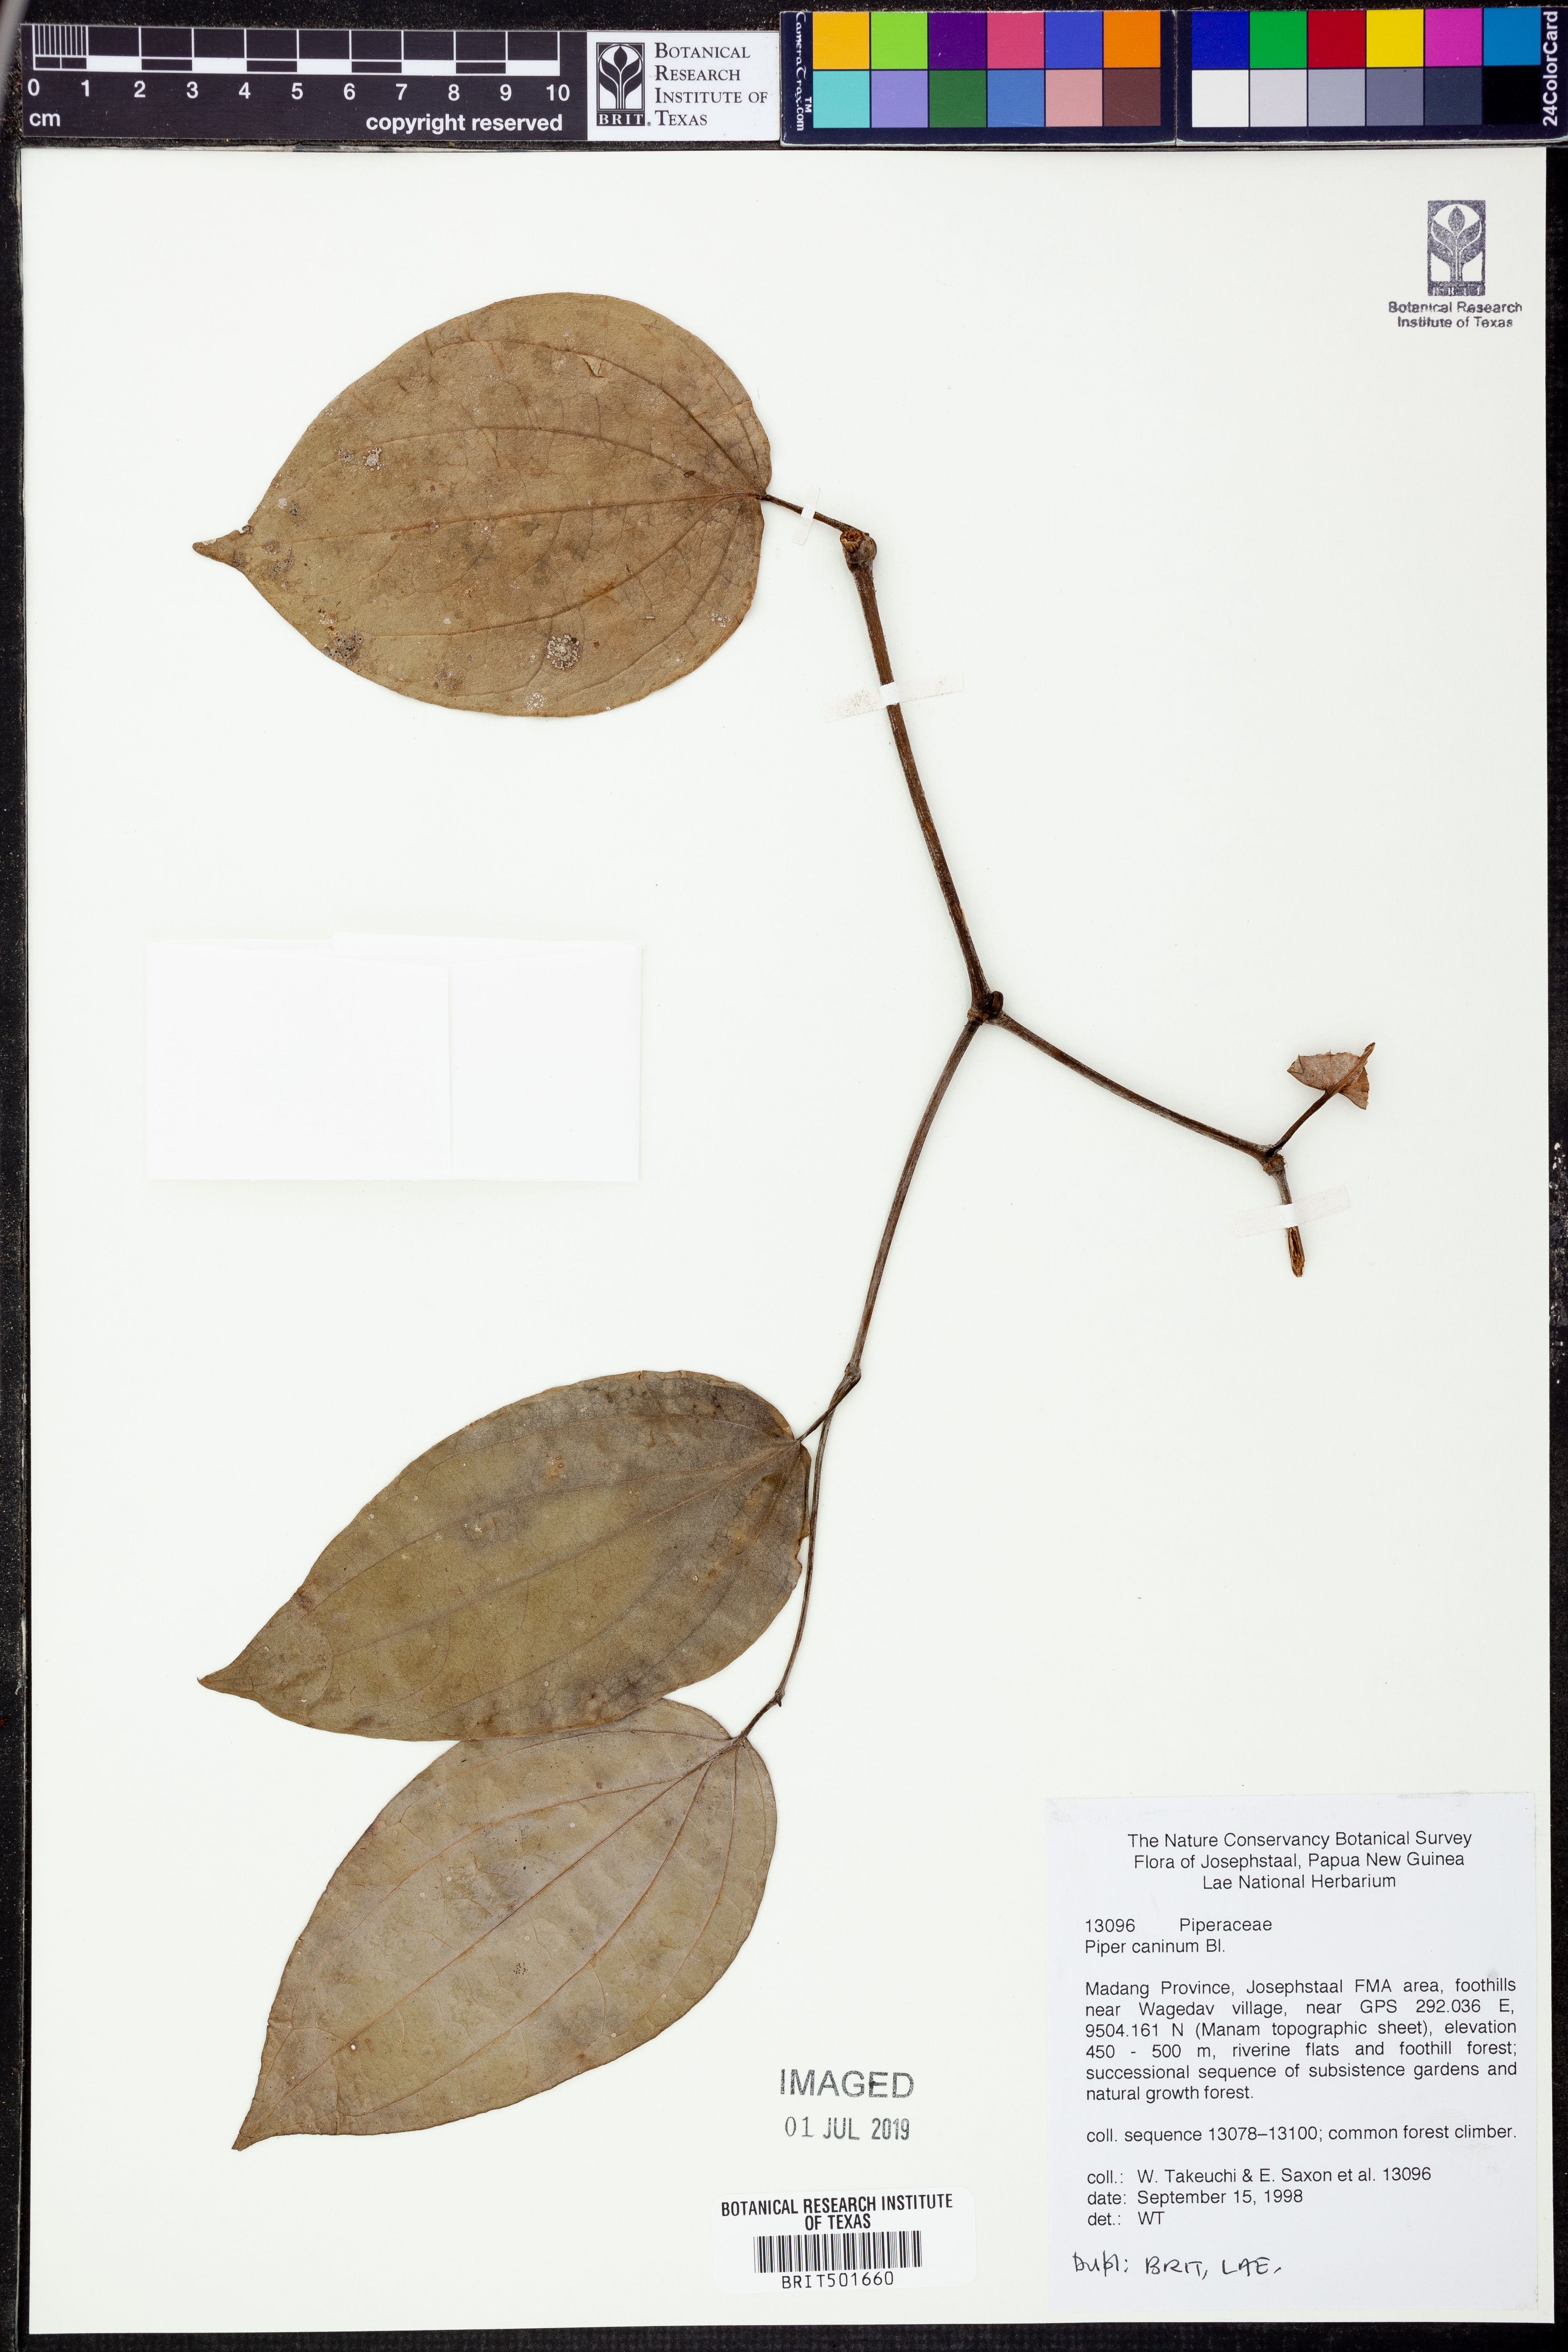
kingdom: Plantae
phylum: Tracheophyta
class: Magnoliopsida
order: Piperales
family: Piperaceae
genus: Piper
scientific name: Piper lanatum
